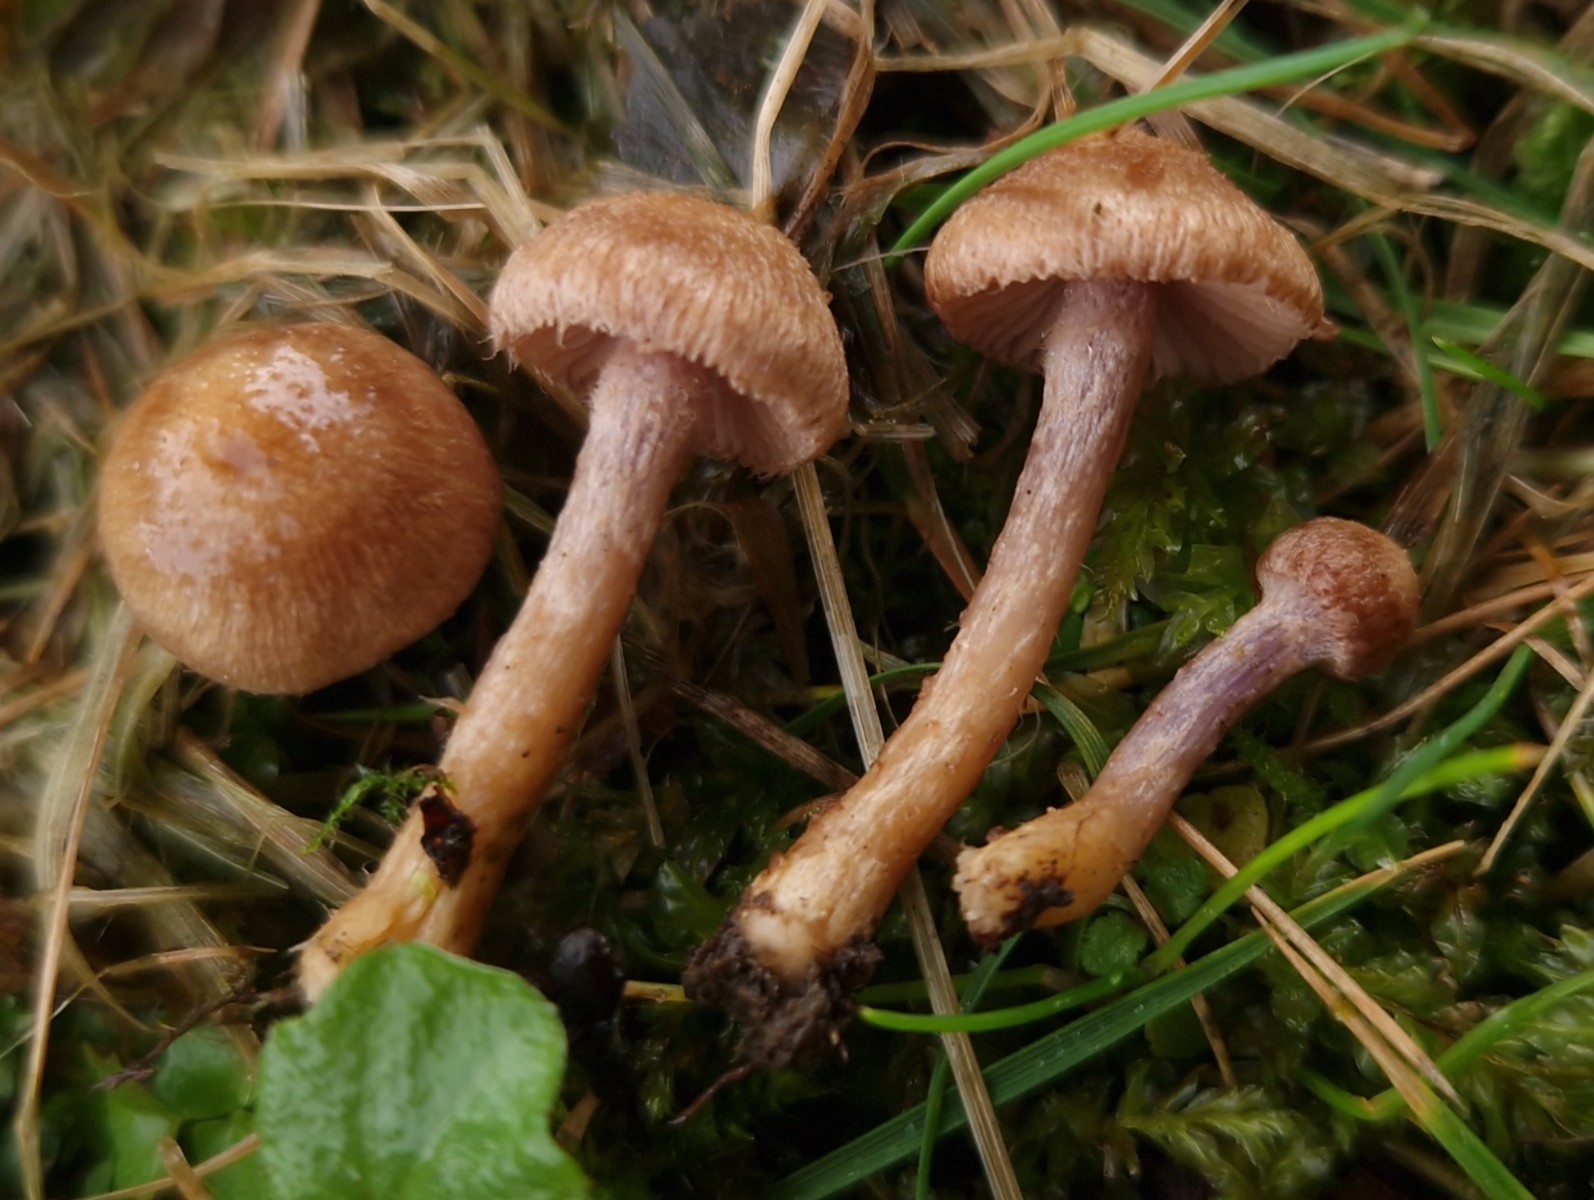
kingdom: Fungi
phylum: Basidiomycota
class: Agaricomycetes
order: Agaricales
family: Inocybaceae
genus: Inocybe
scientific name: Inocybe cincinnata
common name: lillabladet trævlhat
